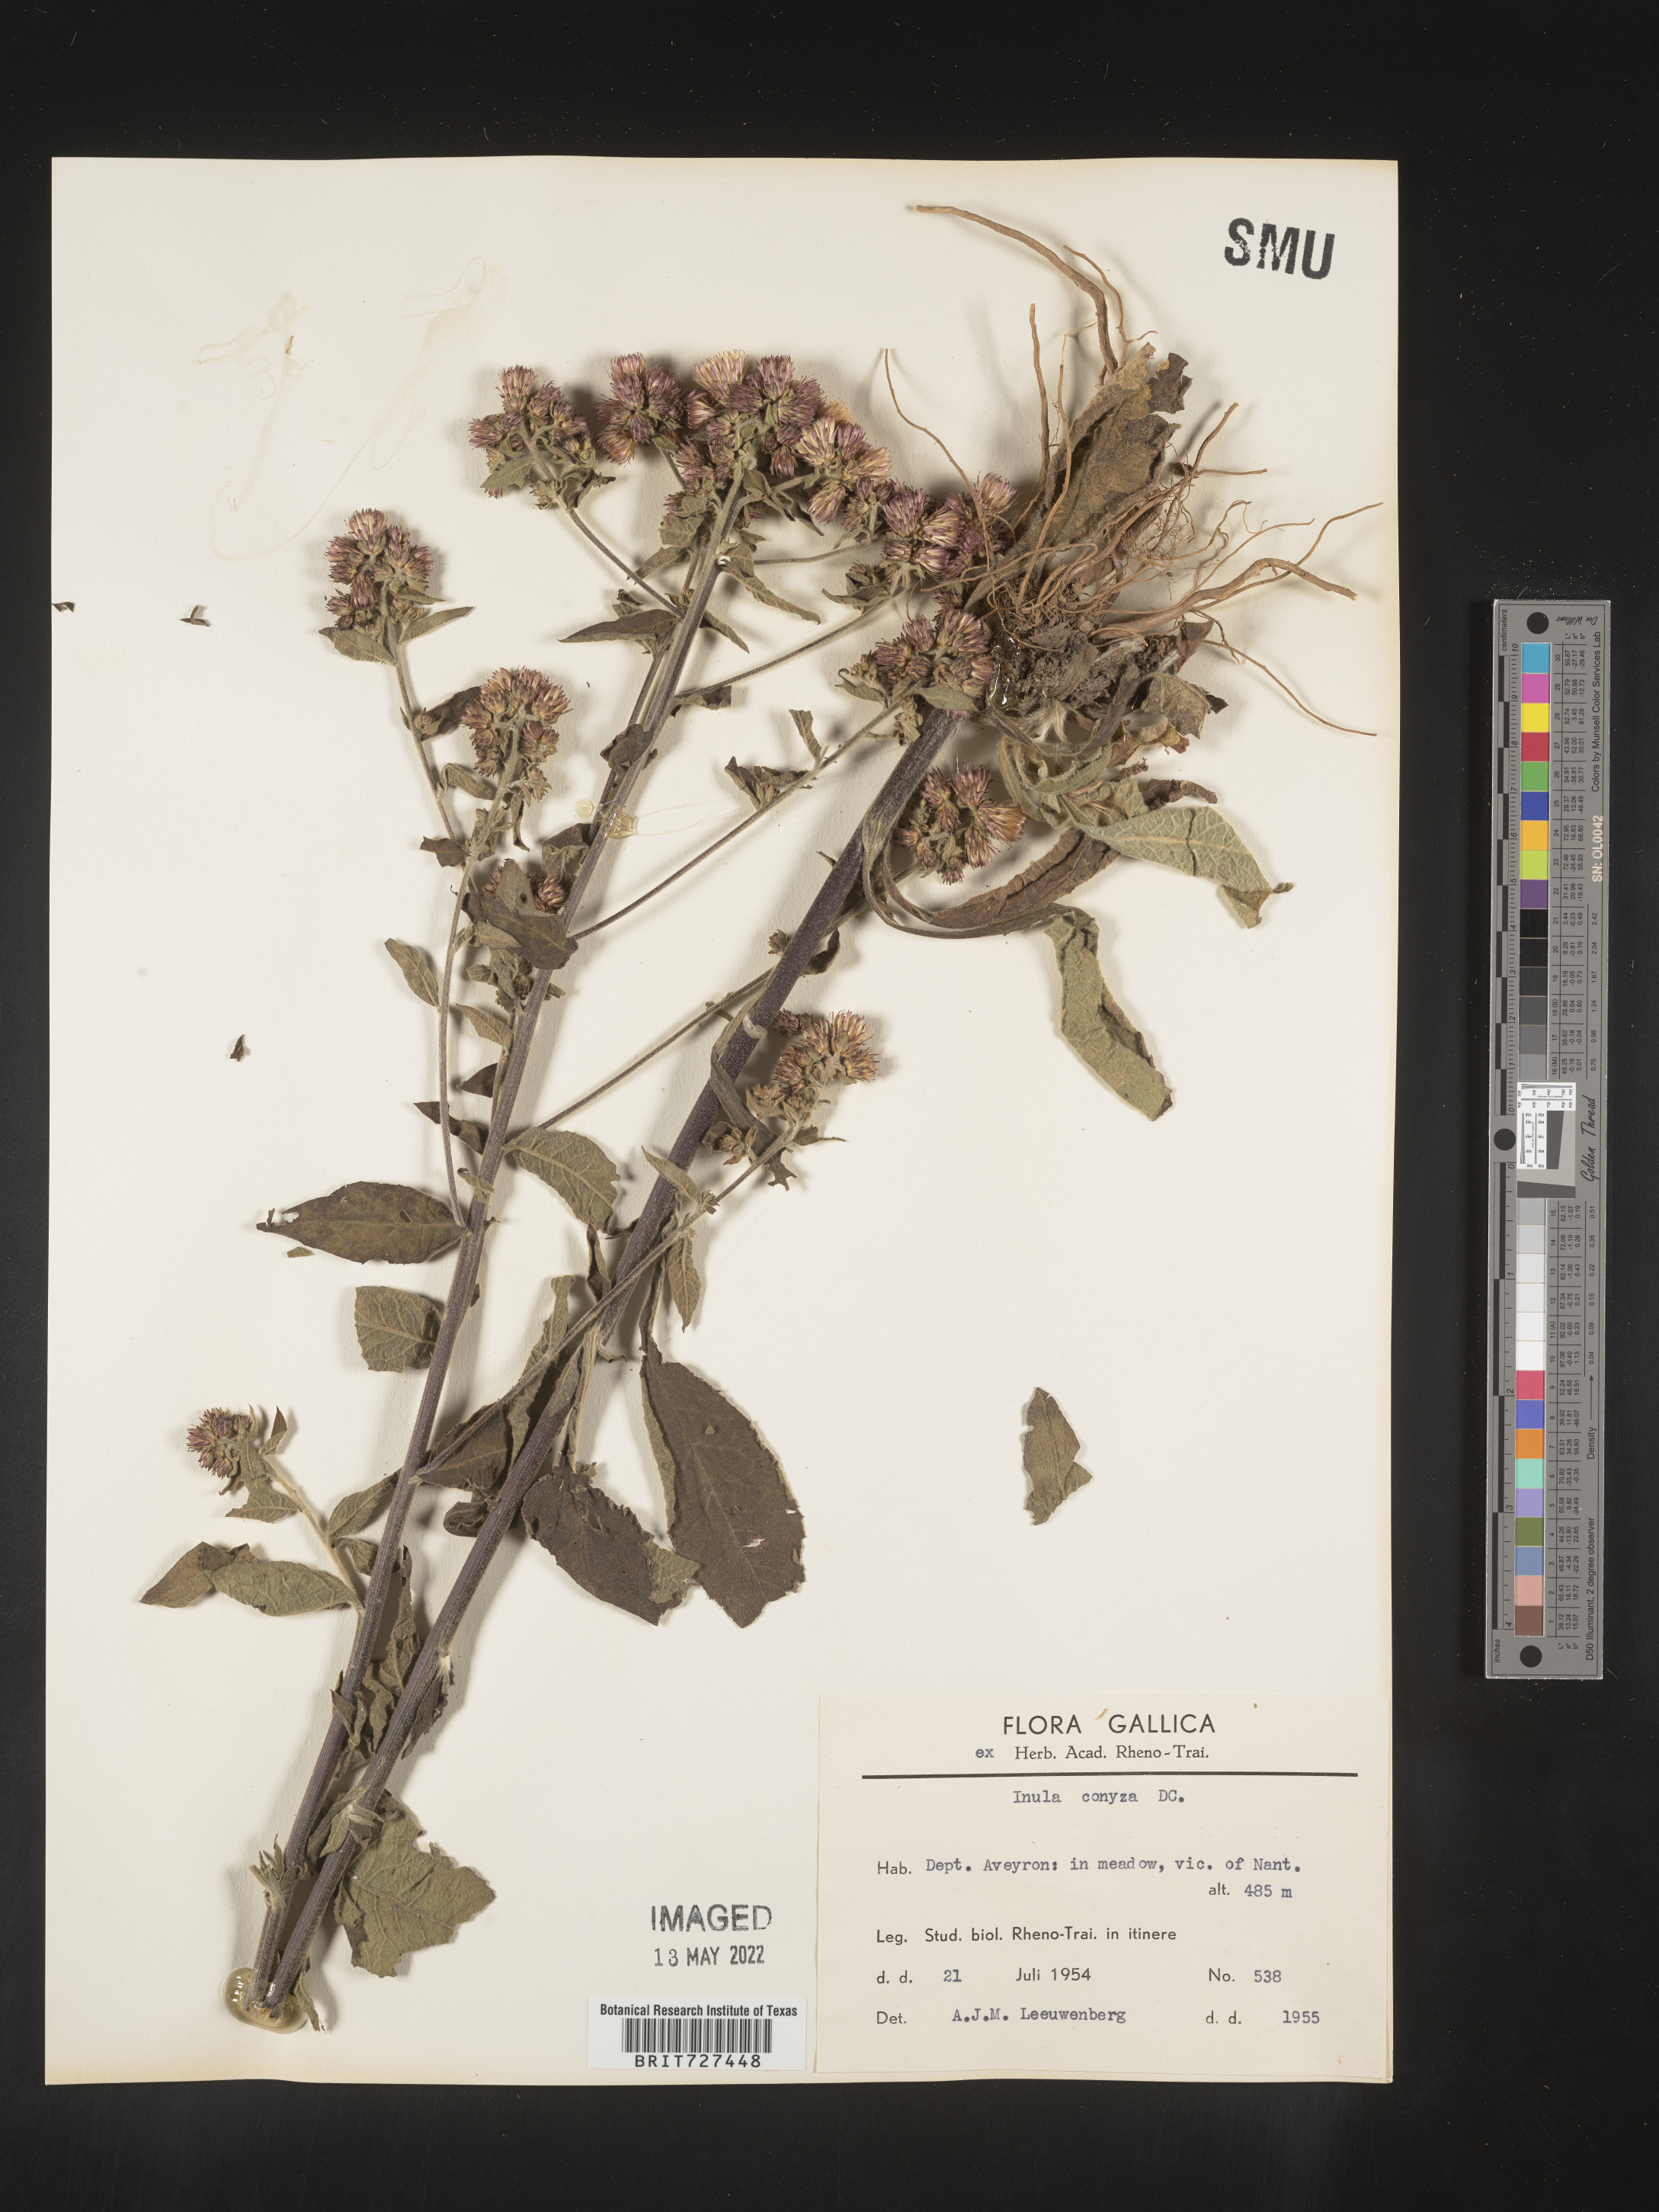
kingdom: Plantae
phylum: Tracheophyta
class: Magnoliopsida
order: Asterales
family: Asteraceae
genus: Inula
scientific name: Inula
